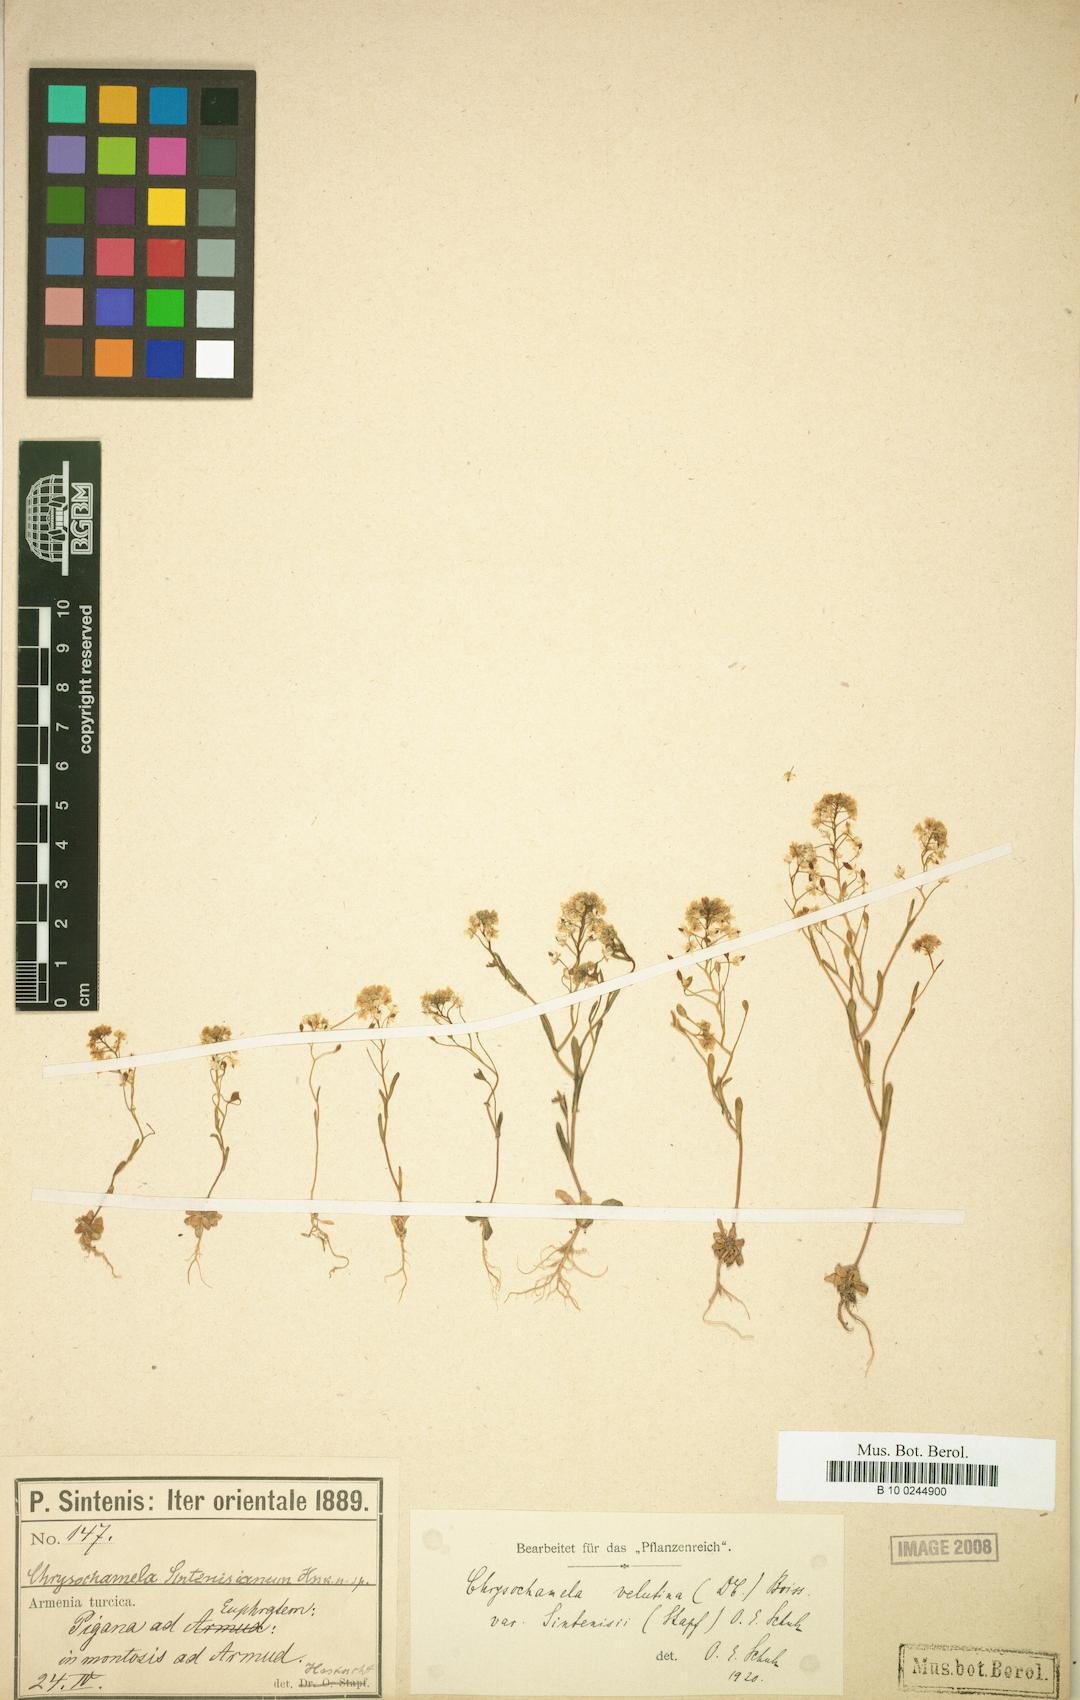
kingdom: Plantae
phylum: Tracheophyta
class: Magnoliopsida
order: Brassicales
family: Brassicaceae
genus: Chrysochamela
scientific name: Chrysochamela velutina
